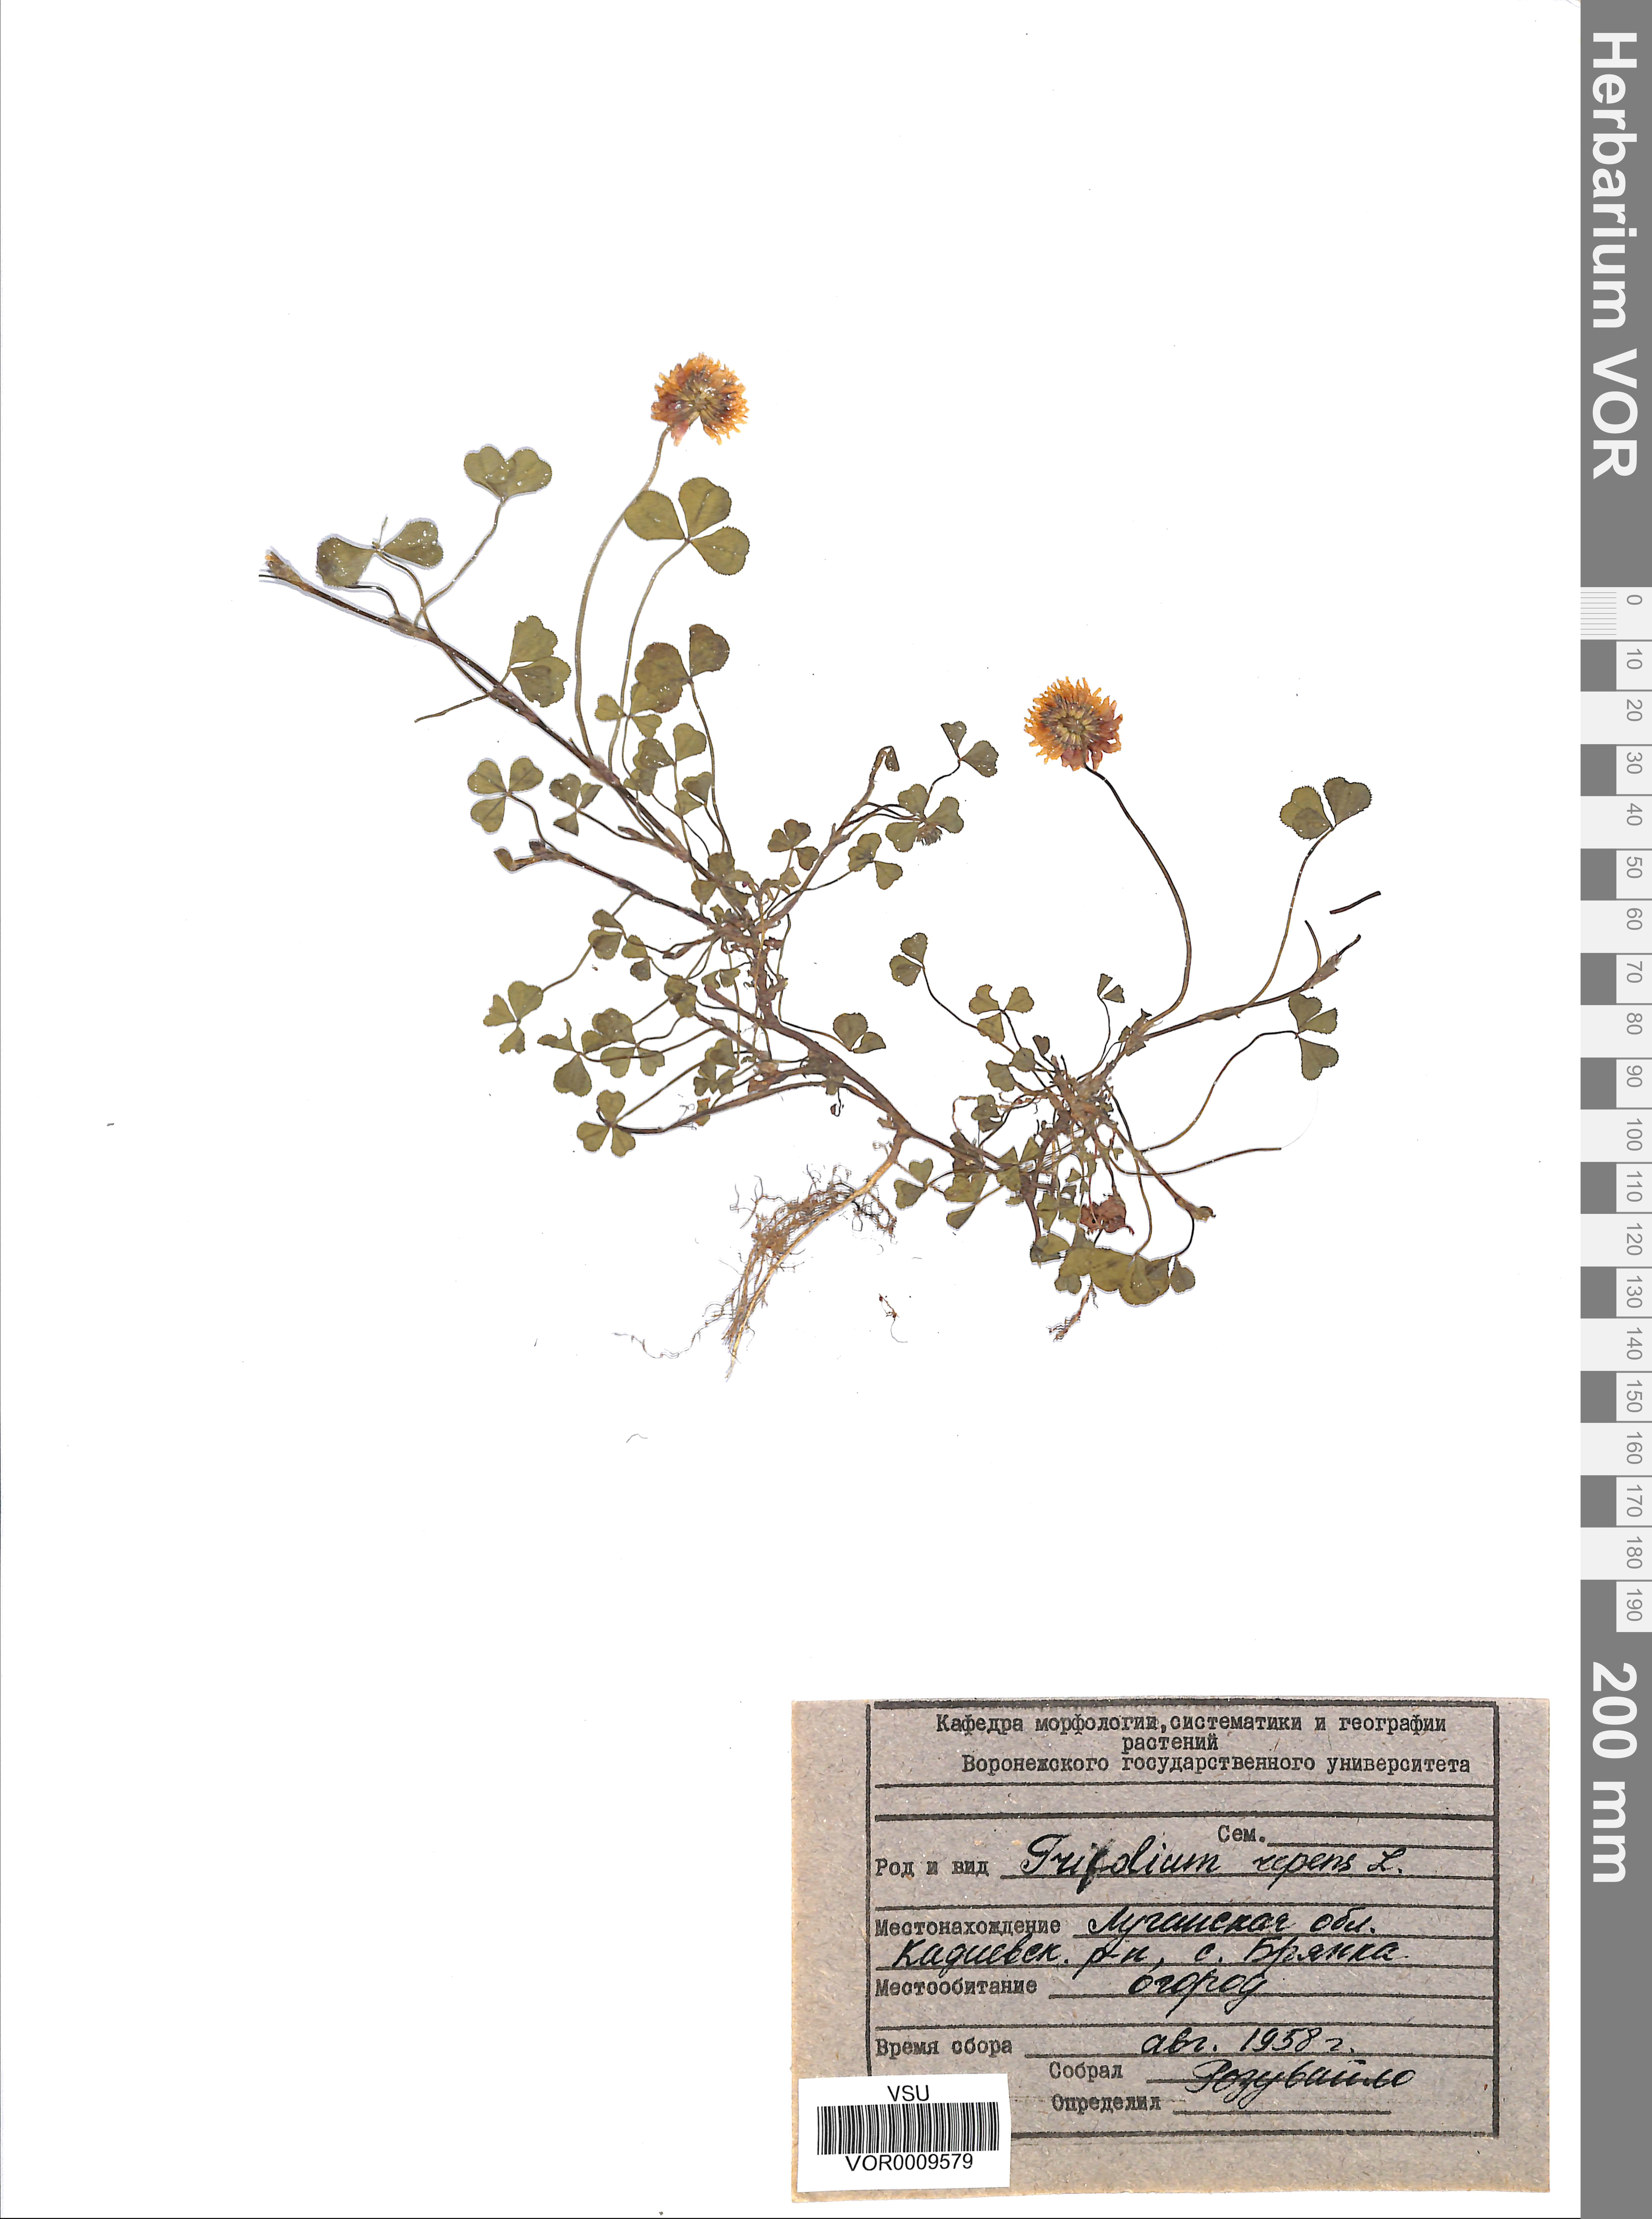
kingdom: Plantae
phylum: Tracheophyta
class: Magnoliopsida
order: Fabales
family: Fabaceae
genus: Trifolium
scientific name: Trifolium repens
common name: White clover
